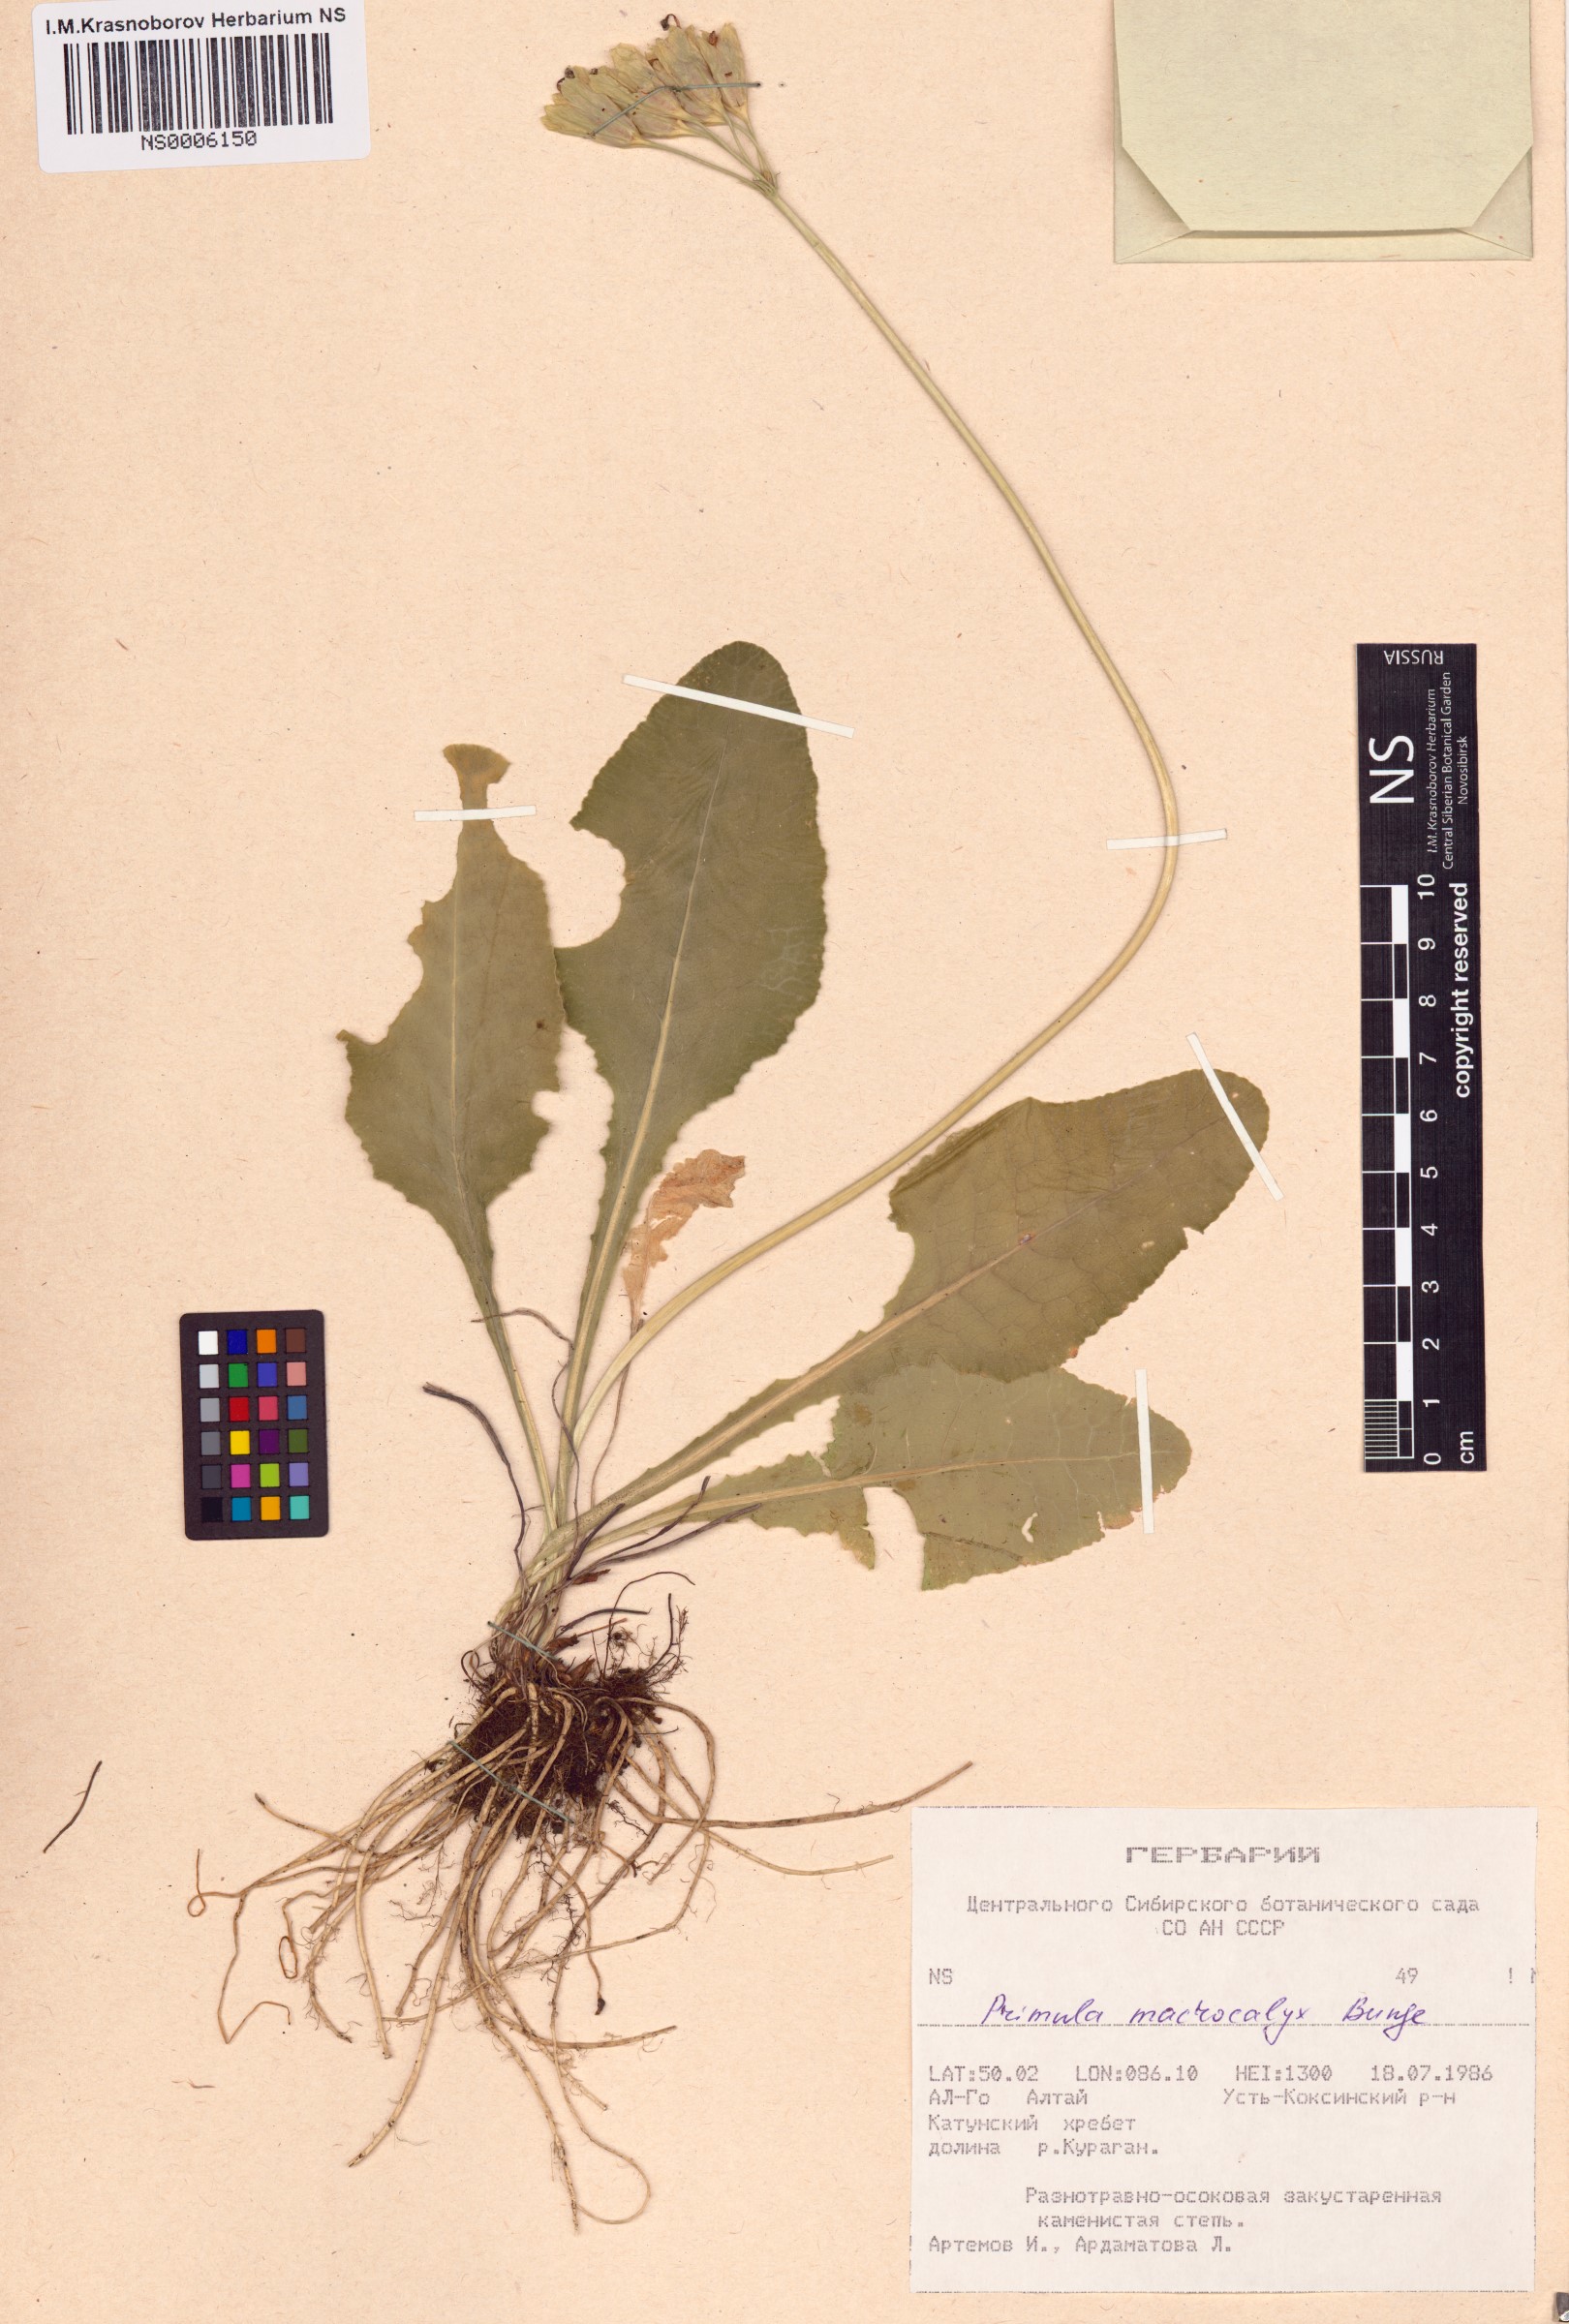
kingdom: Plantae
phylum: Tracheophyta
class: Magnoliopsida
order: Ericales
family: Primulaceae
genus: Primula
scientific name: Primula veris
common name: Cowslip
